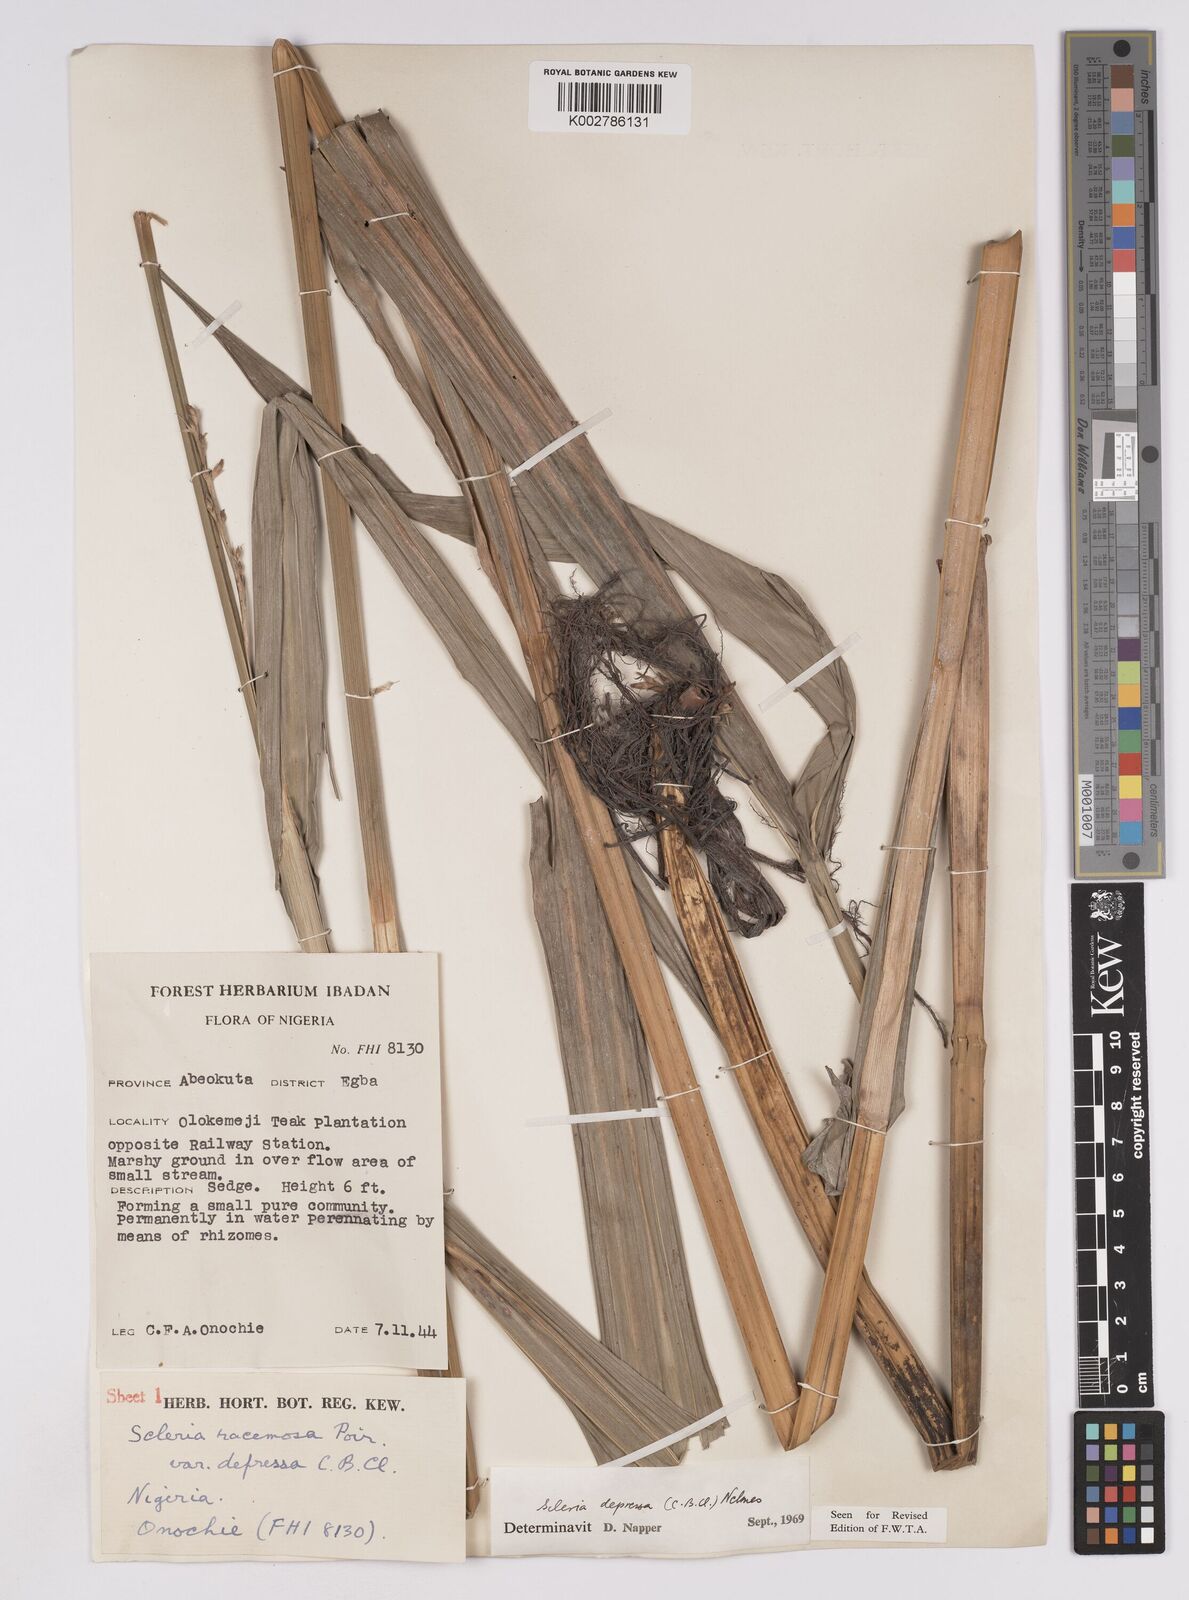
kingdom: Plantae
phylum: Tracheophyta
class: Liliopsida
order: Poales
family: Cyperaceae
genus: Scleria
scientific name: Scleria depressa
